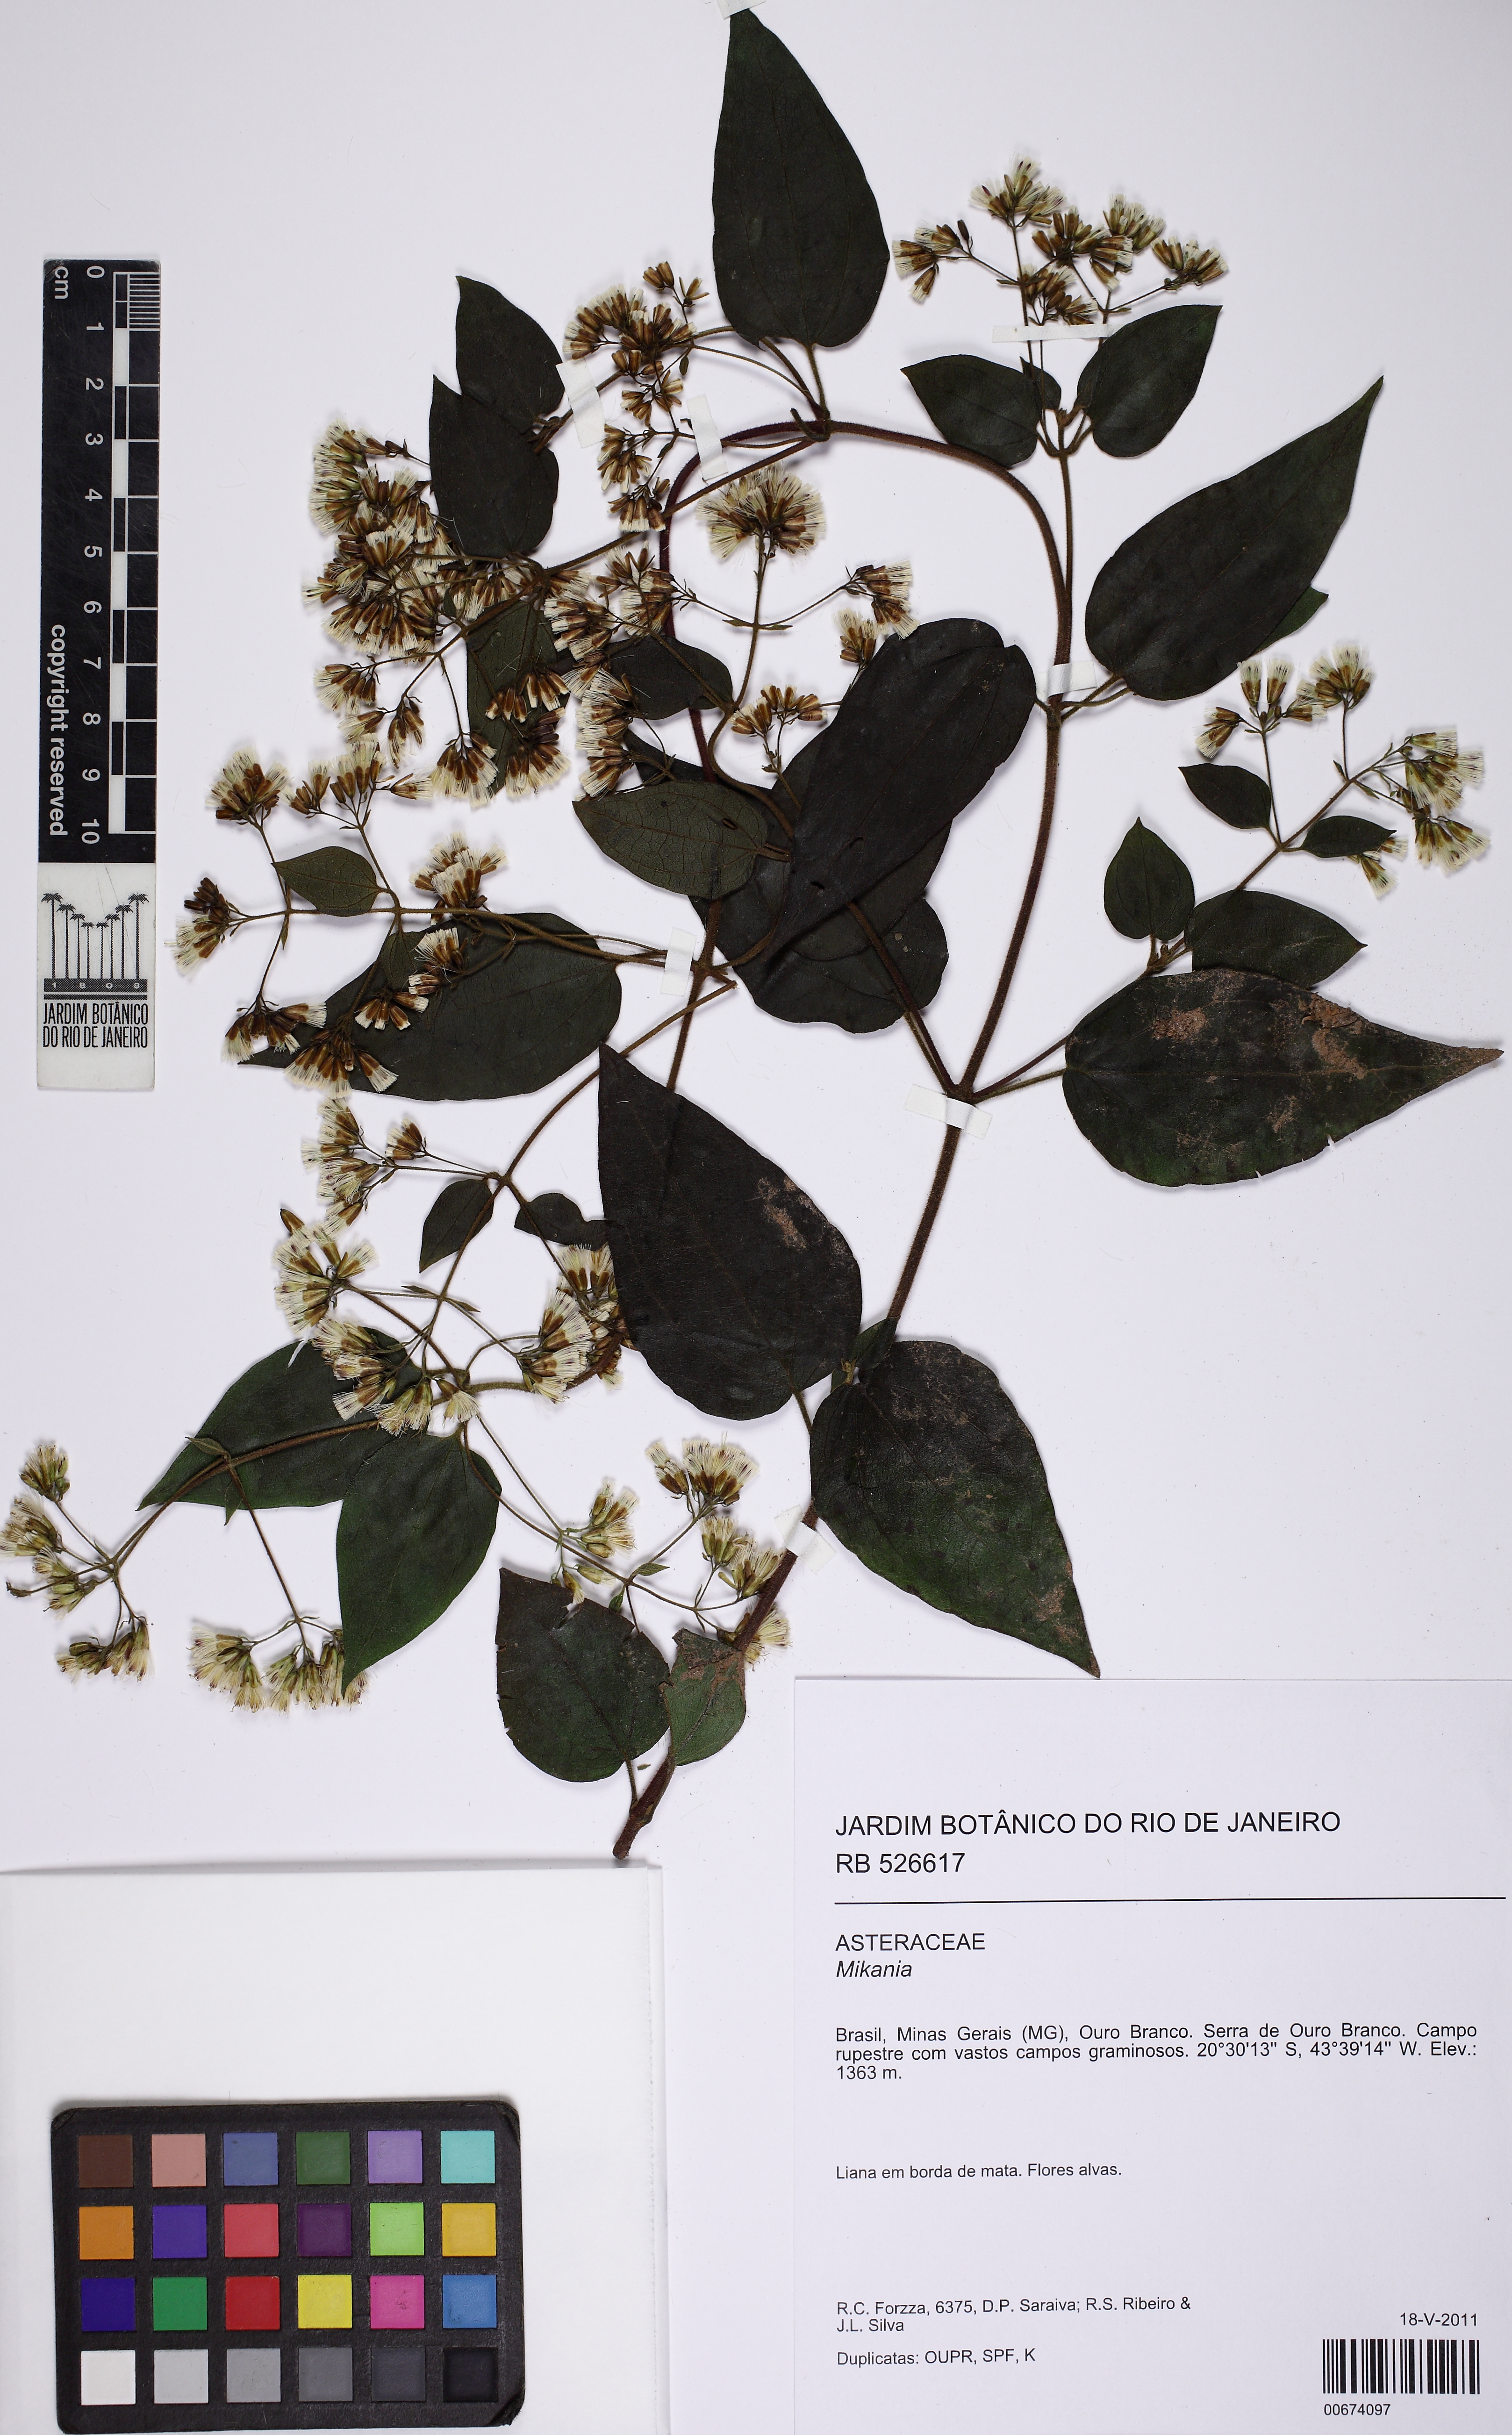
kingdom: Plantae
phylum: Tracheophyta
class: Magnoliopsida
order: Asterales
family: Asteraceae
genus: Mikania
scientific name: Mikania microdonta
